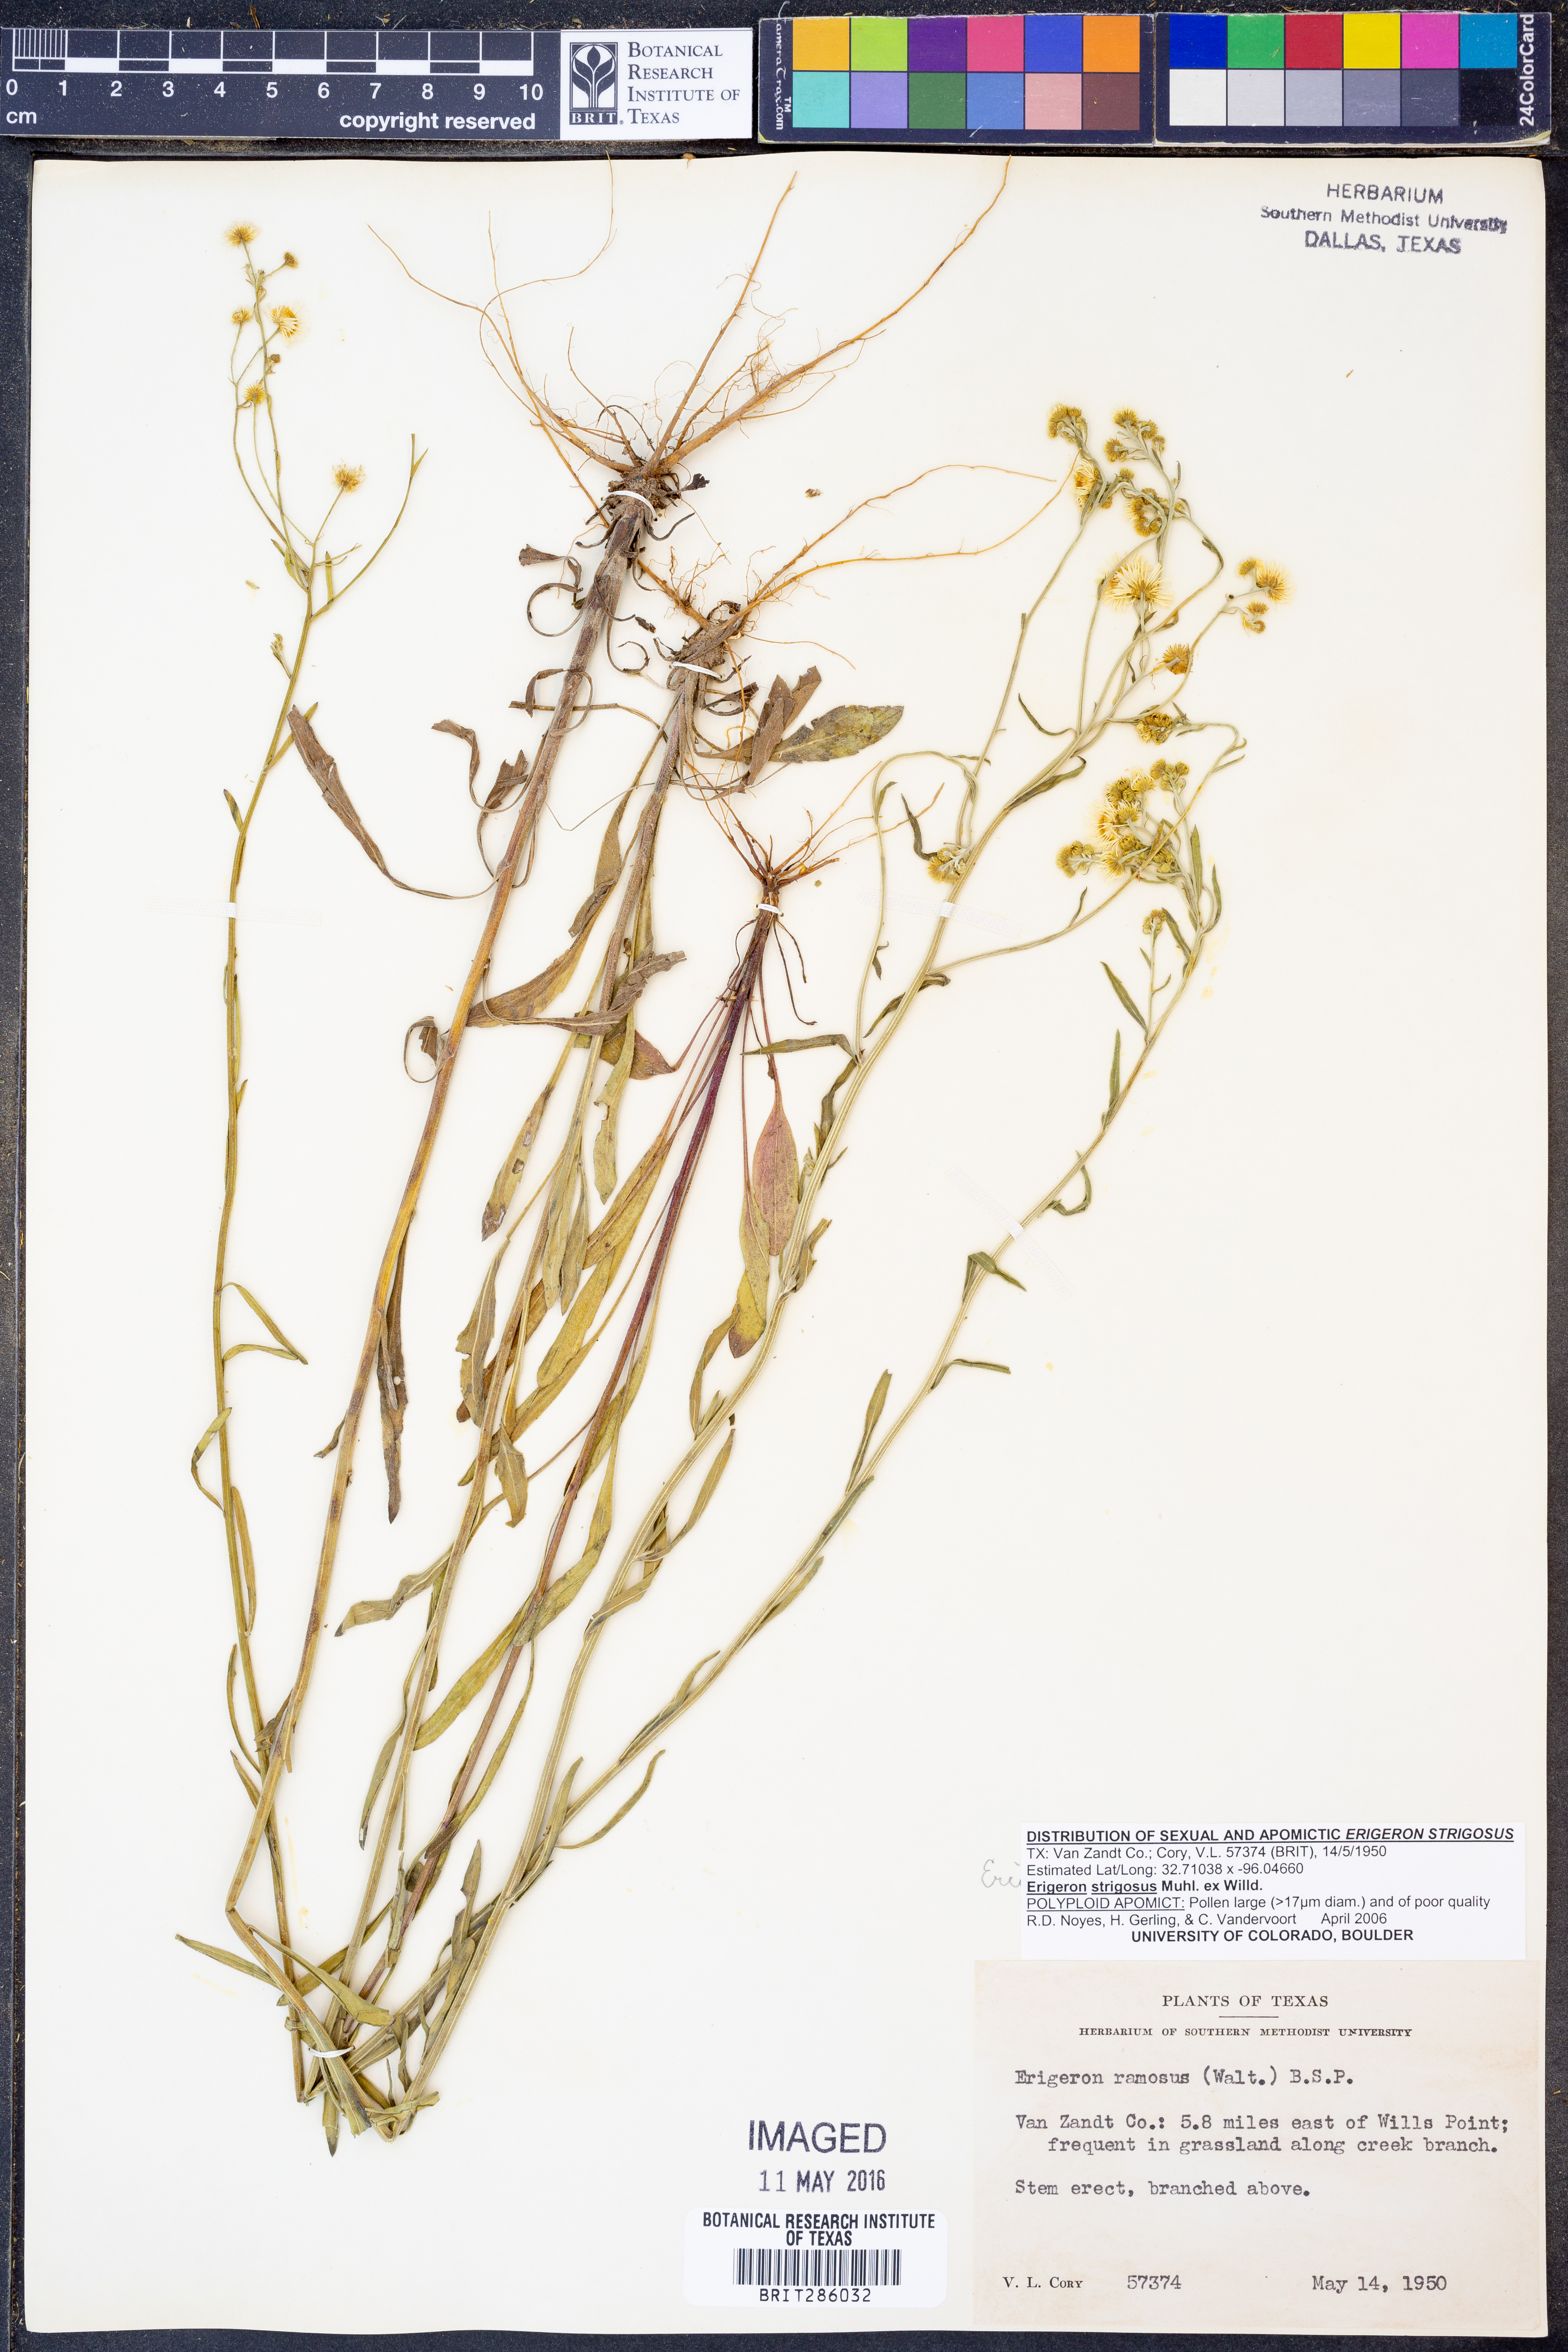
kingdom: Plantae
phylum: Tracheophyta
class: Magnoliopsida
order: Asterales
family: Asteraceae
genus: Erigeron
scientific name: Erigeron strigosus
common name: Common eastern fleabane
